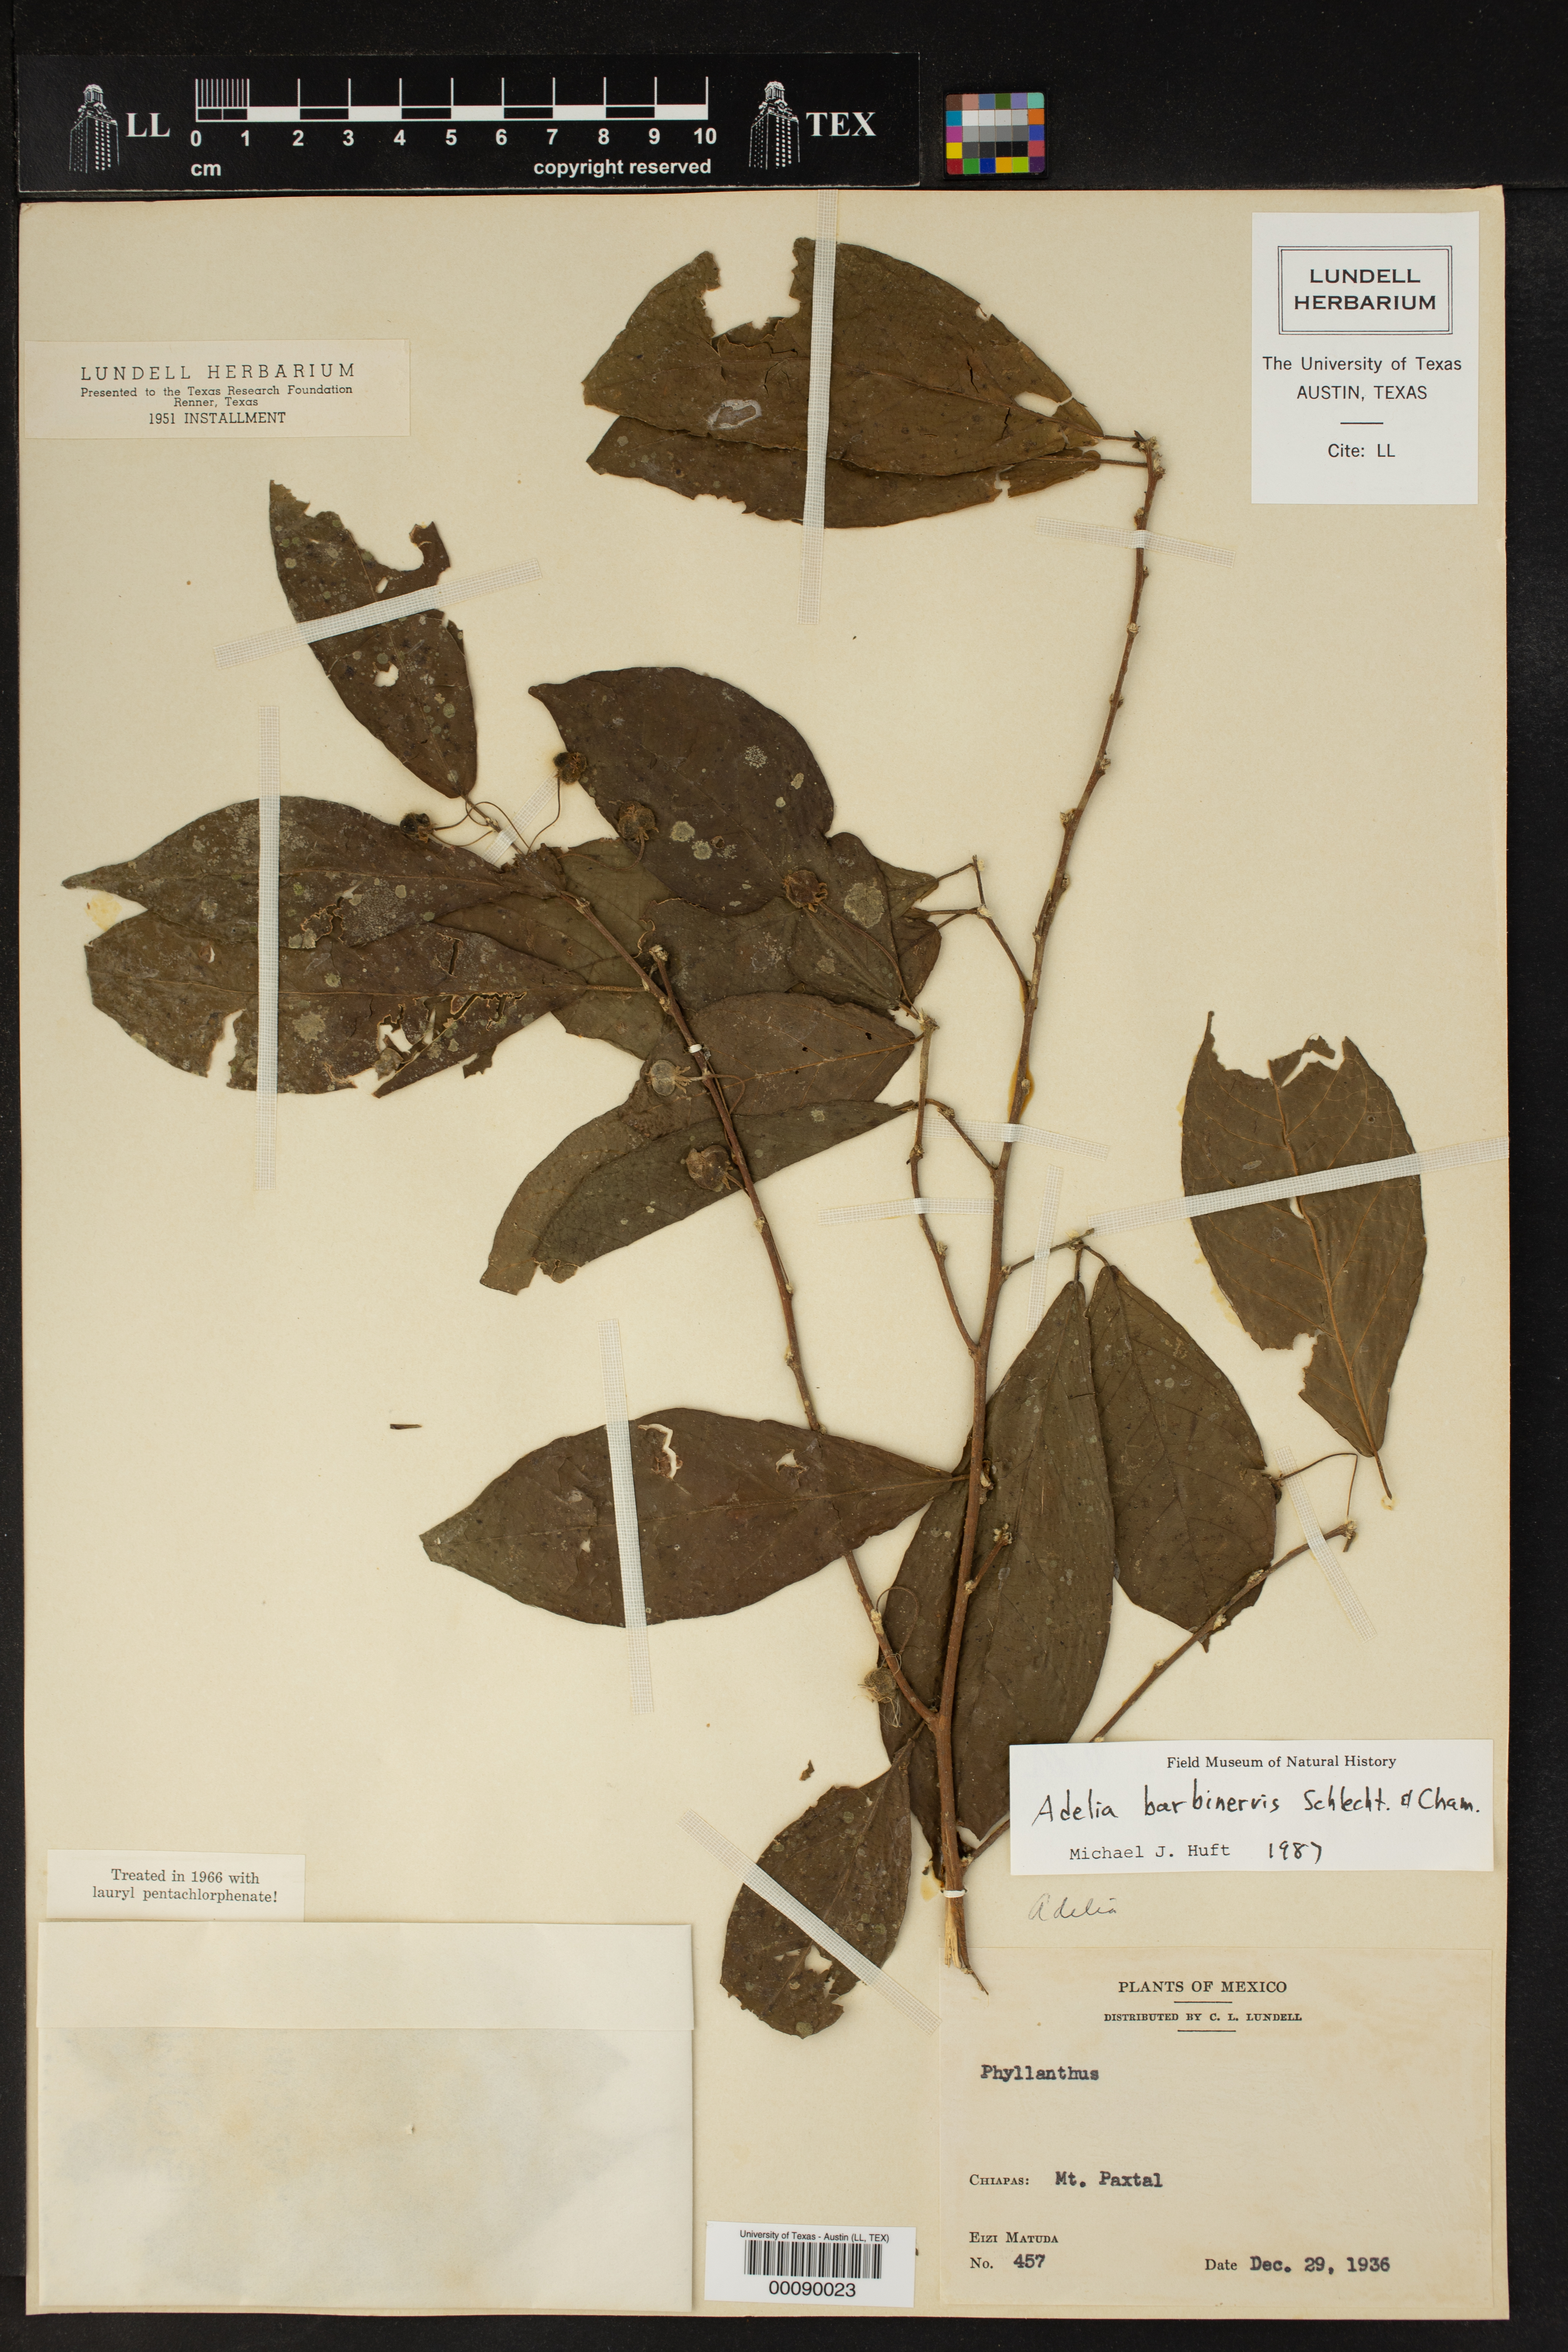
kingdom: Plantae
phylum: Tracheophyta
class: Magnoliopsida
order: Malpighiales
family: Euphorbiaceae
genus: Adelia
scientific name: Adelia barbinervis
